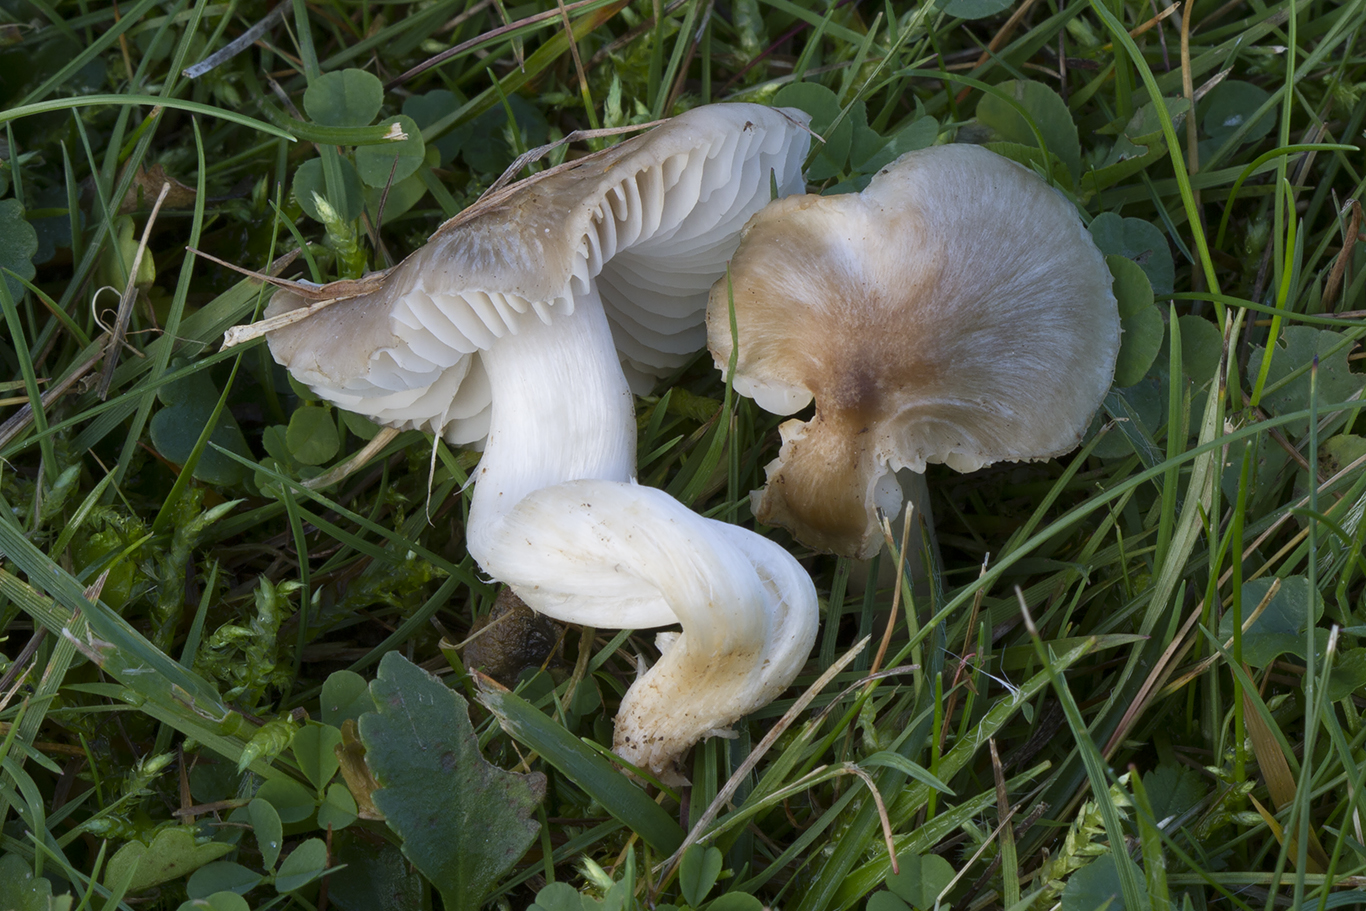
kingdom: Fungi
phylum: Basidiomycota
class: Agaricomycetes
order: Agaricales
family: Hygrophoraceae
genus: Cuphophyllus
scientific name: Cuphophyllus fornicatus
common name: gråbrun vokshat
